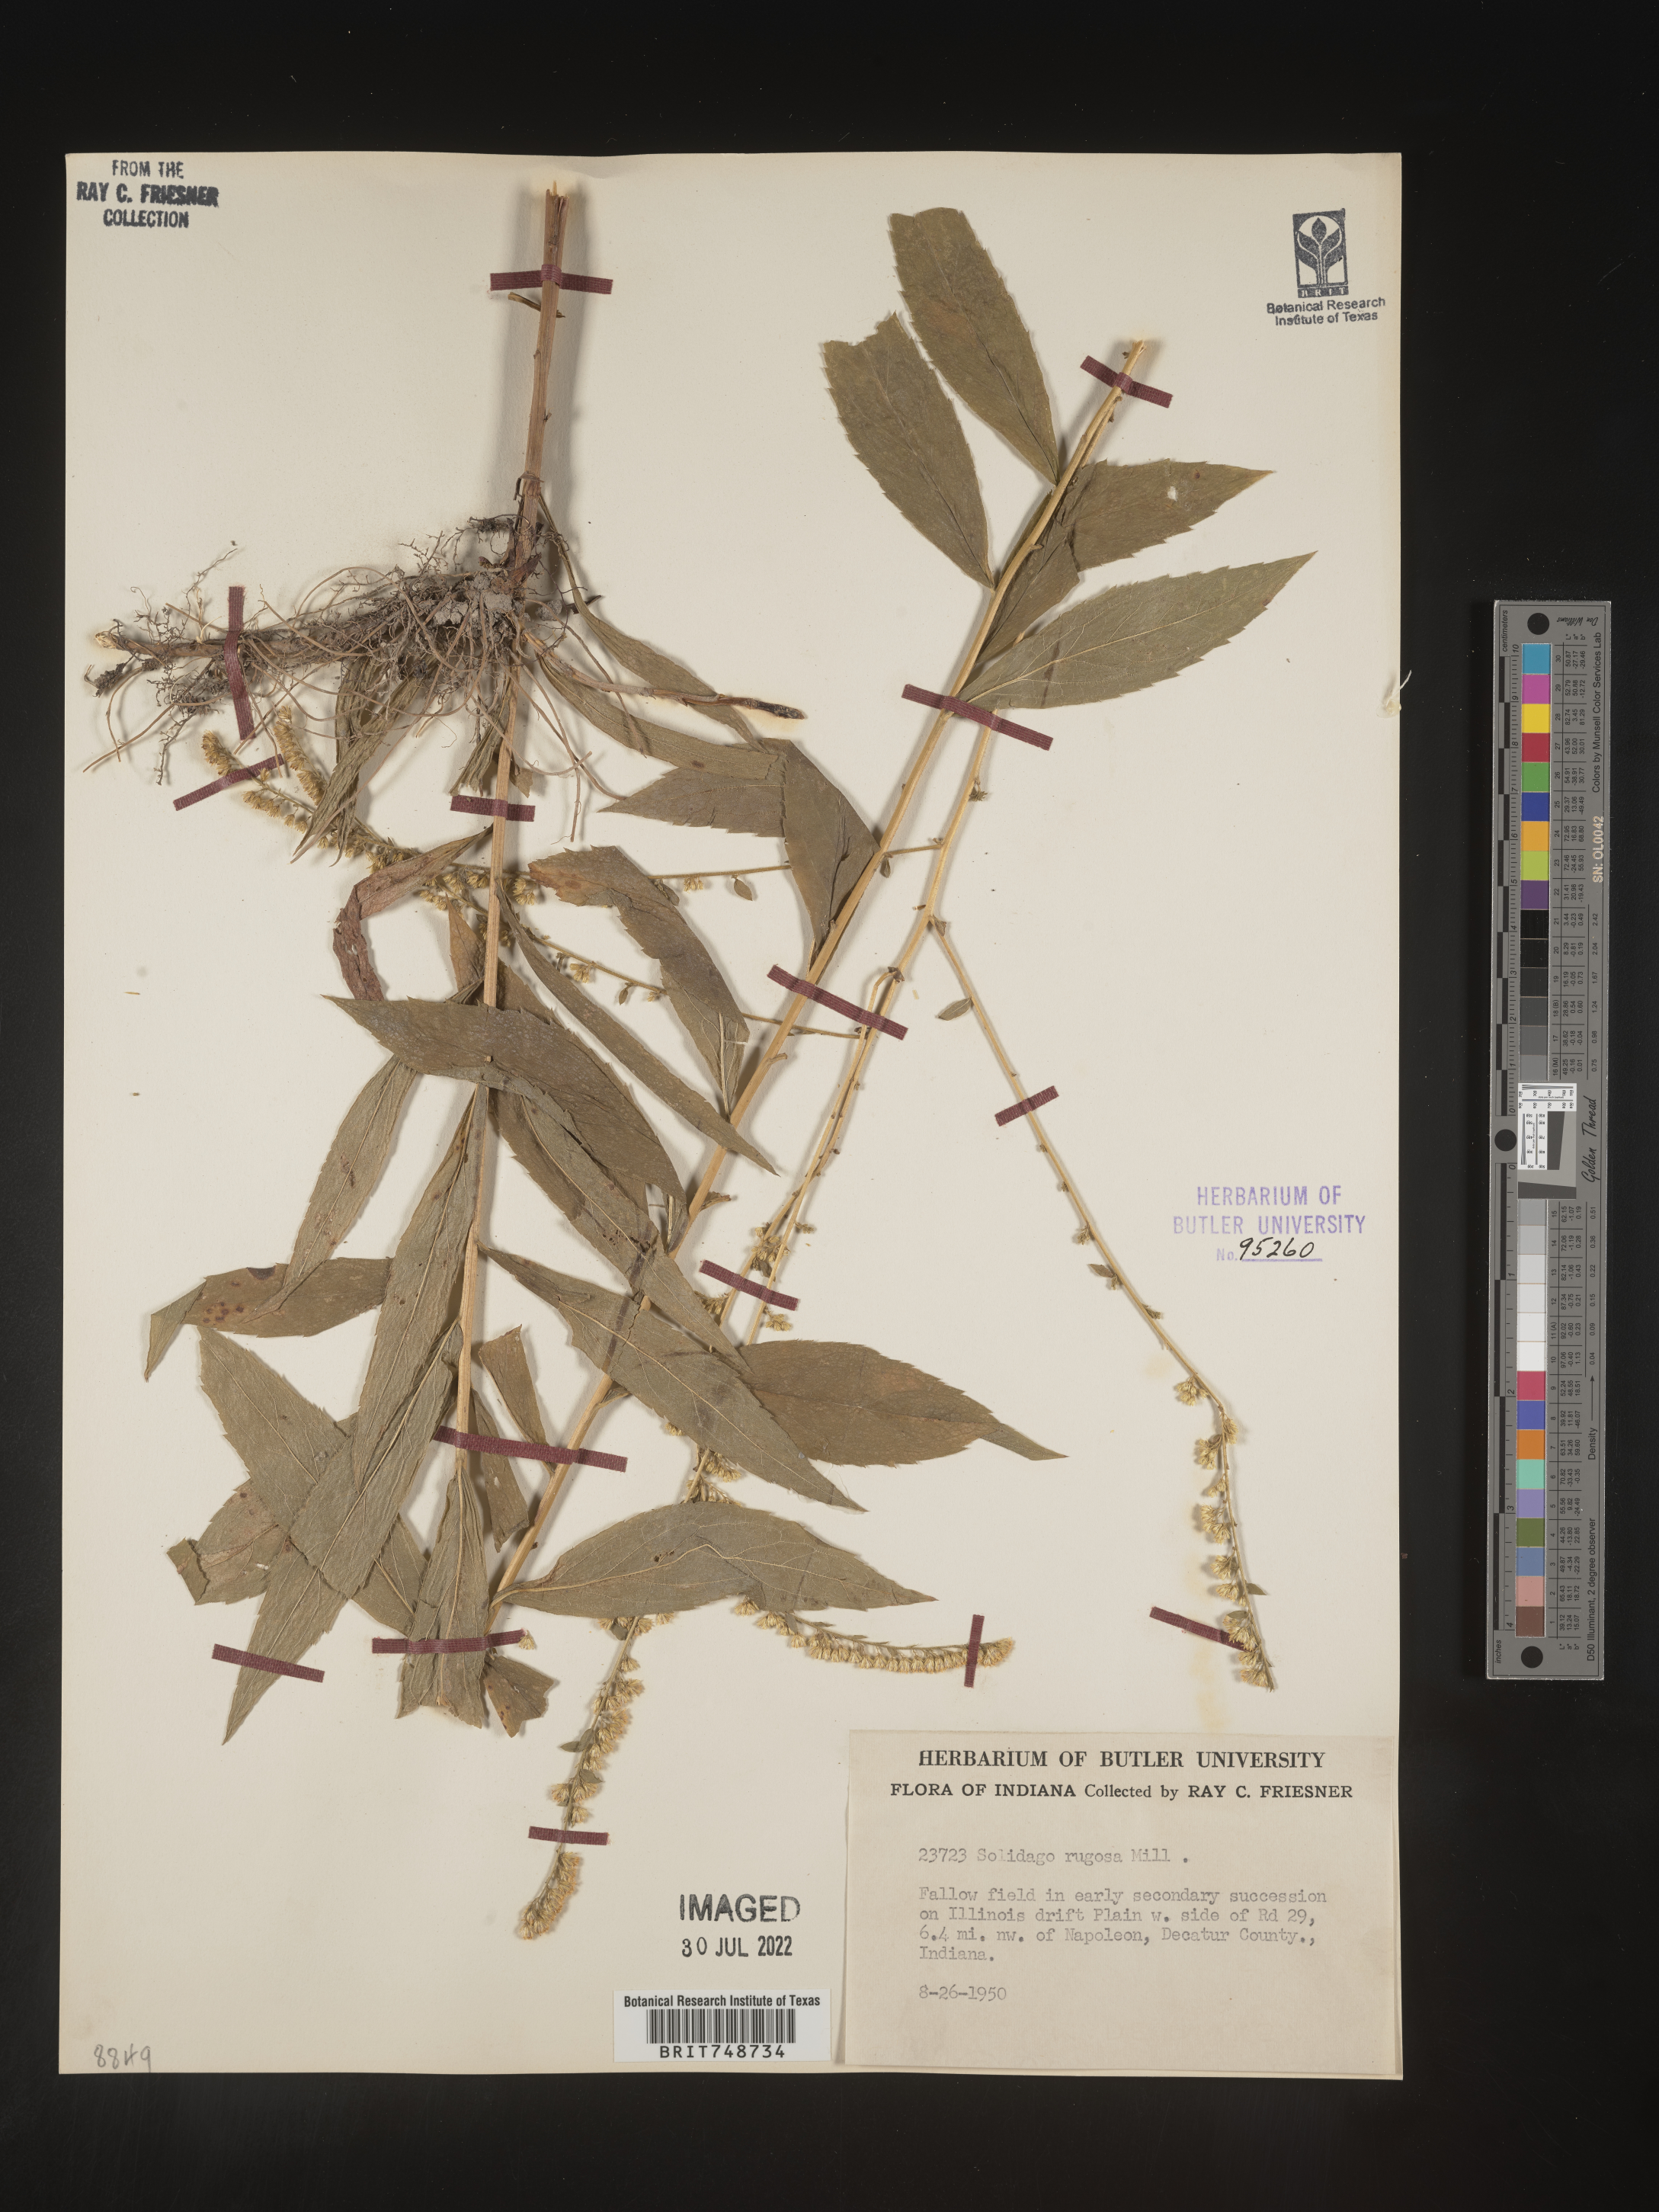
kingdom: Plantae
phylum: Tracheophyta
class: Magnoliopsida
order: Asterales
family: Asteraceae
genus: Solidago
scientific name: Solidago rugosa
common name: Rough-stemmed goldenrod
